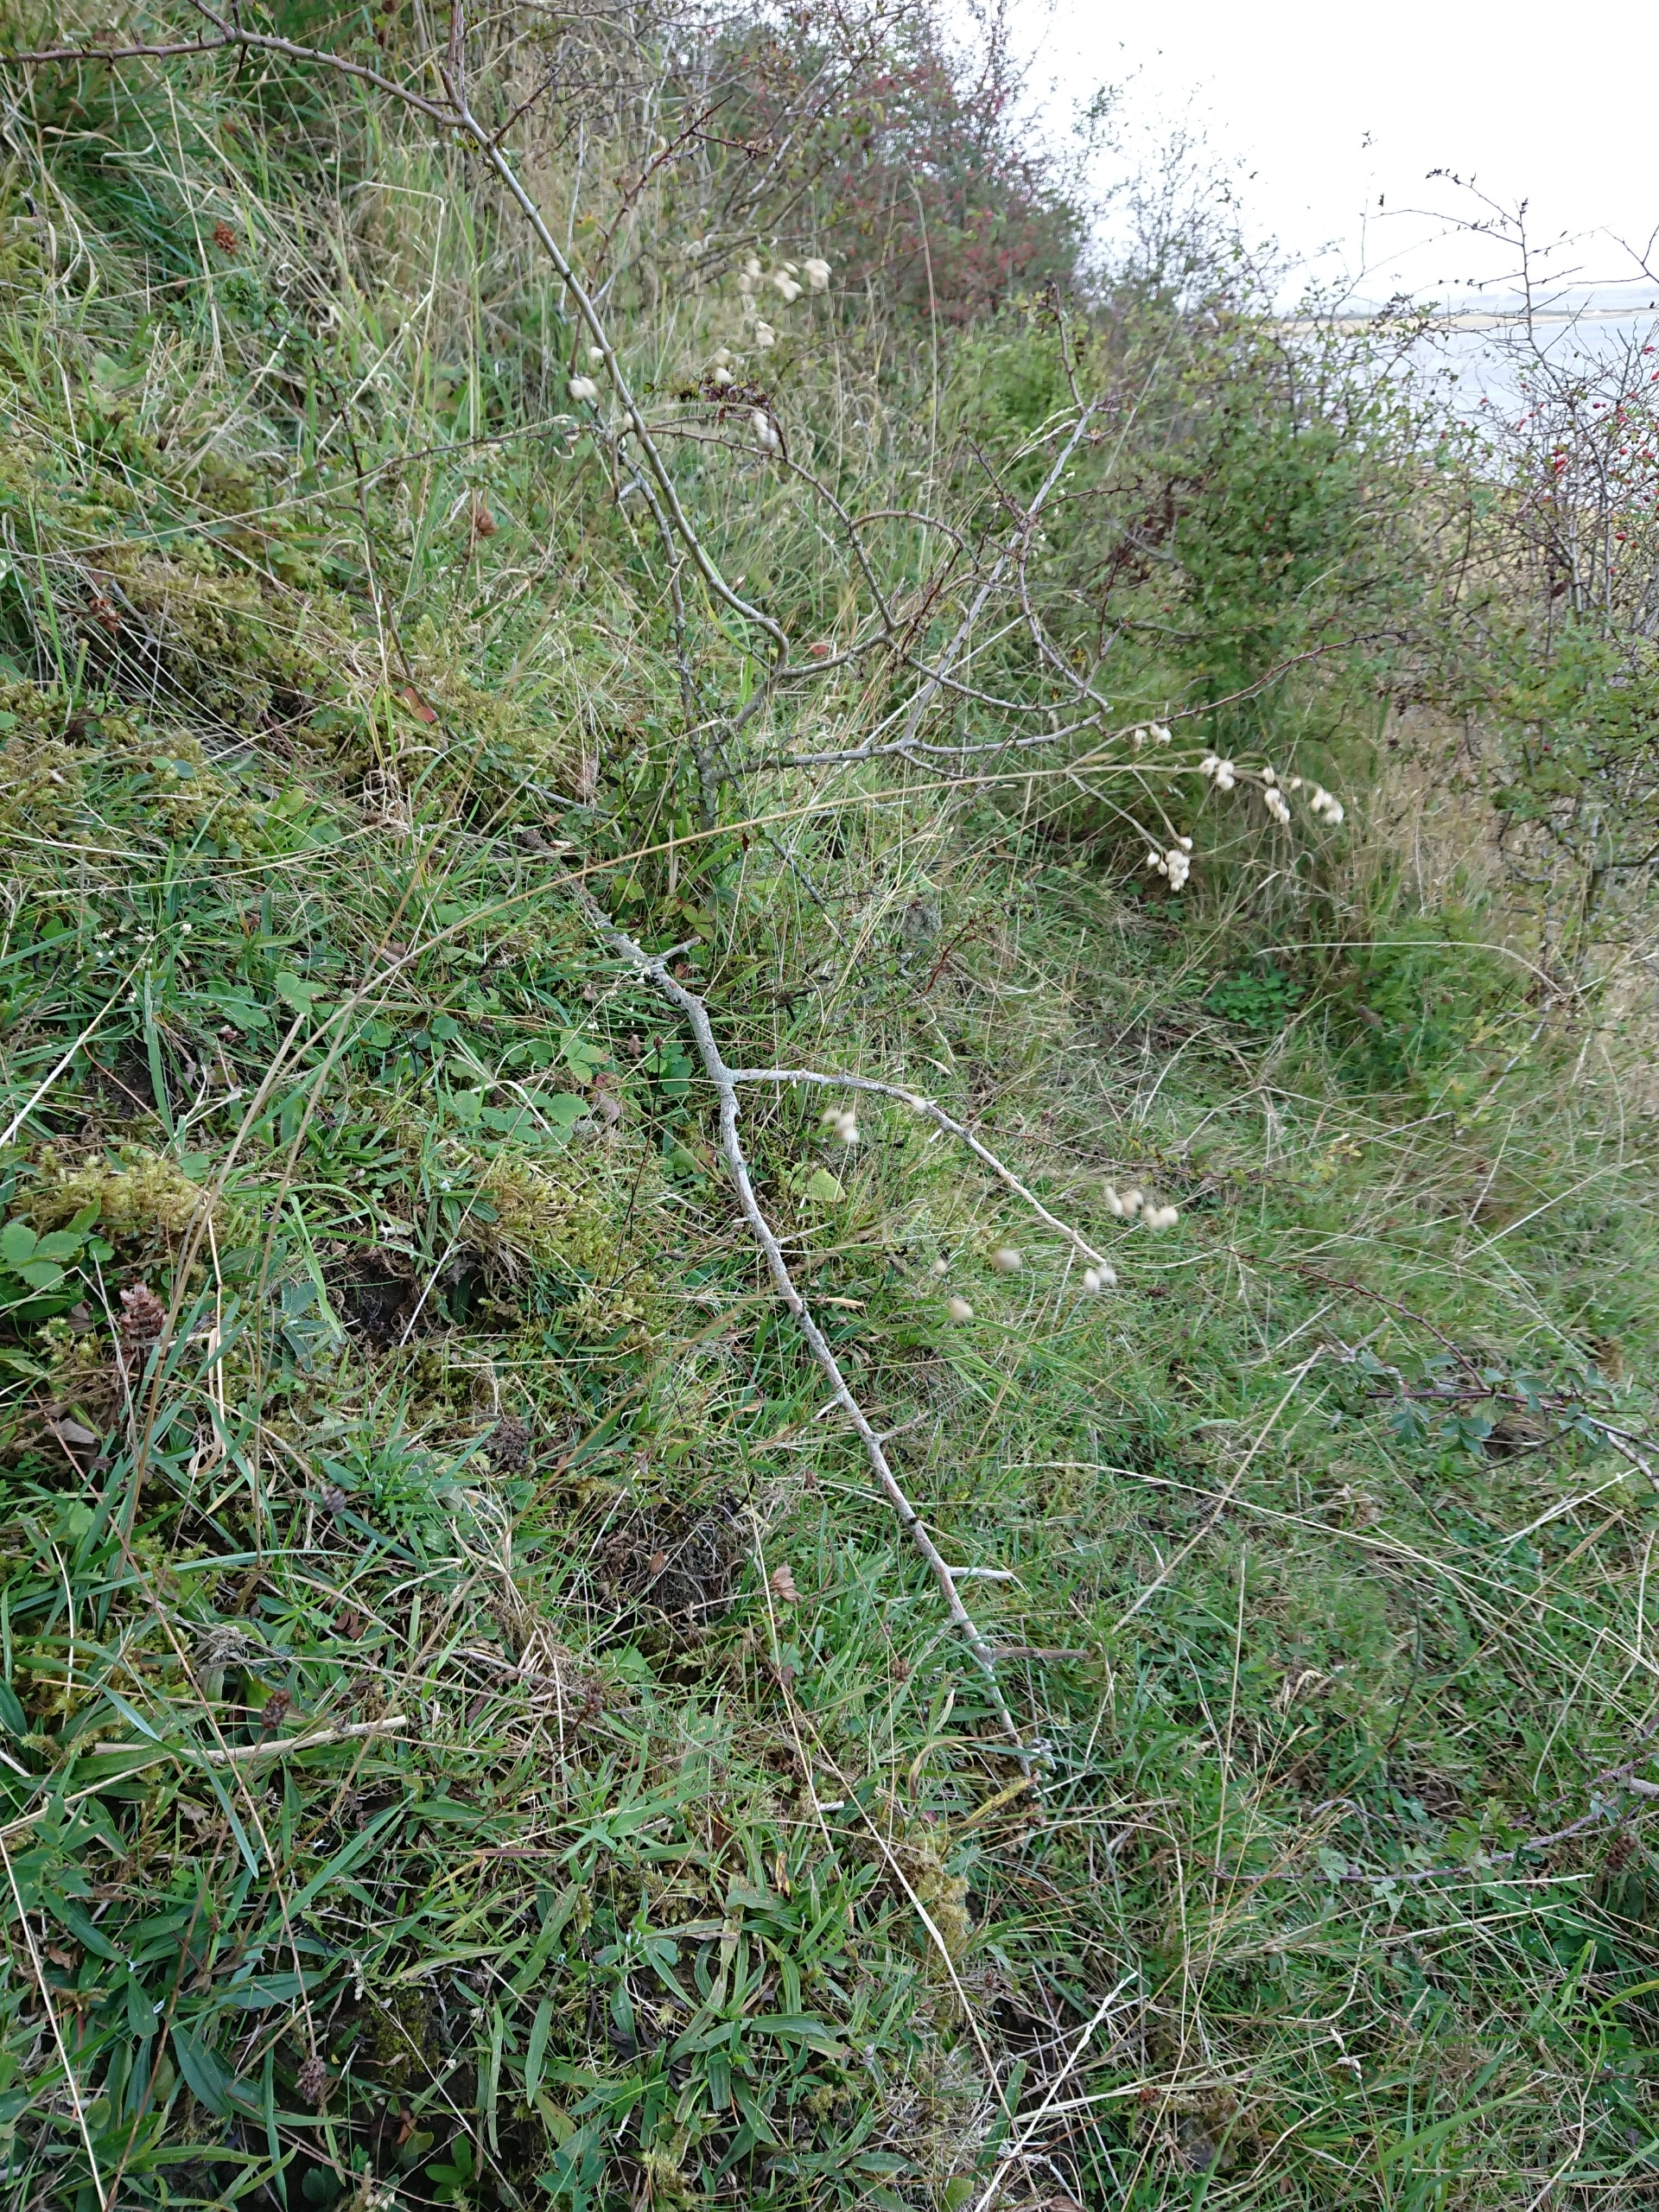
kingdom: Plantae
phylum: Tracheophyta
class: Liliopsida
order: Poales
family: Poaceae
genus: Briza
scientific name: Briza media
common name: Hjertegræs
